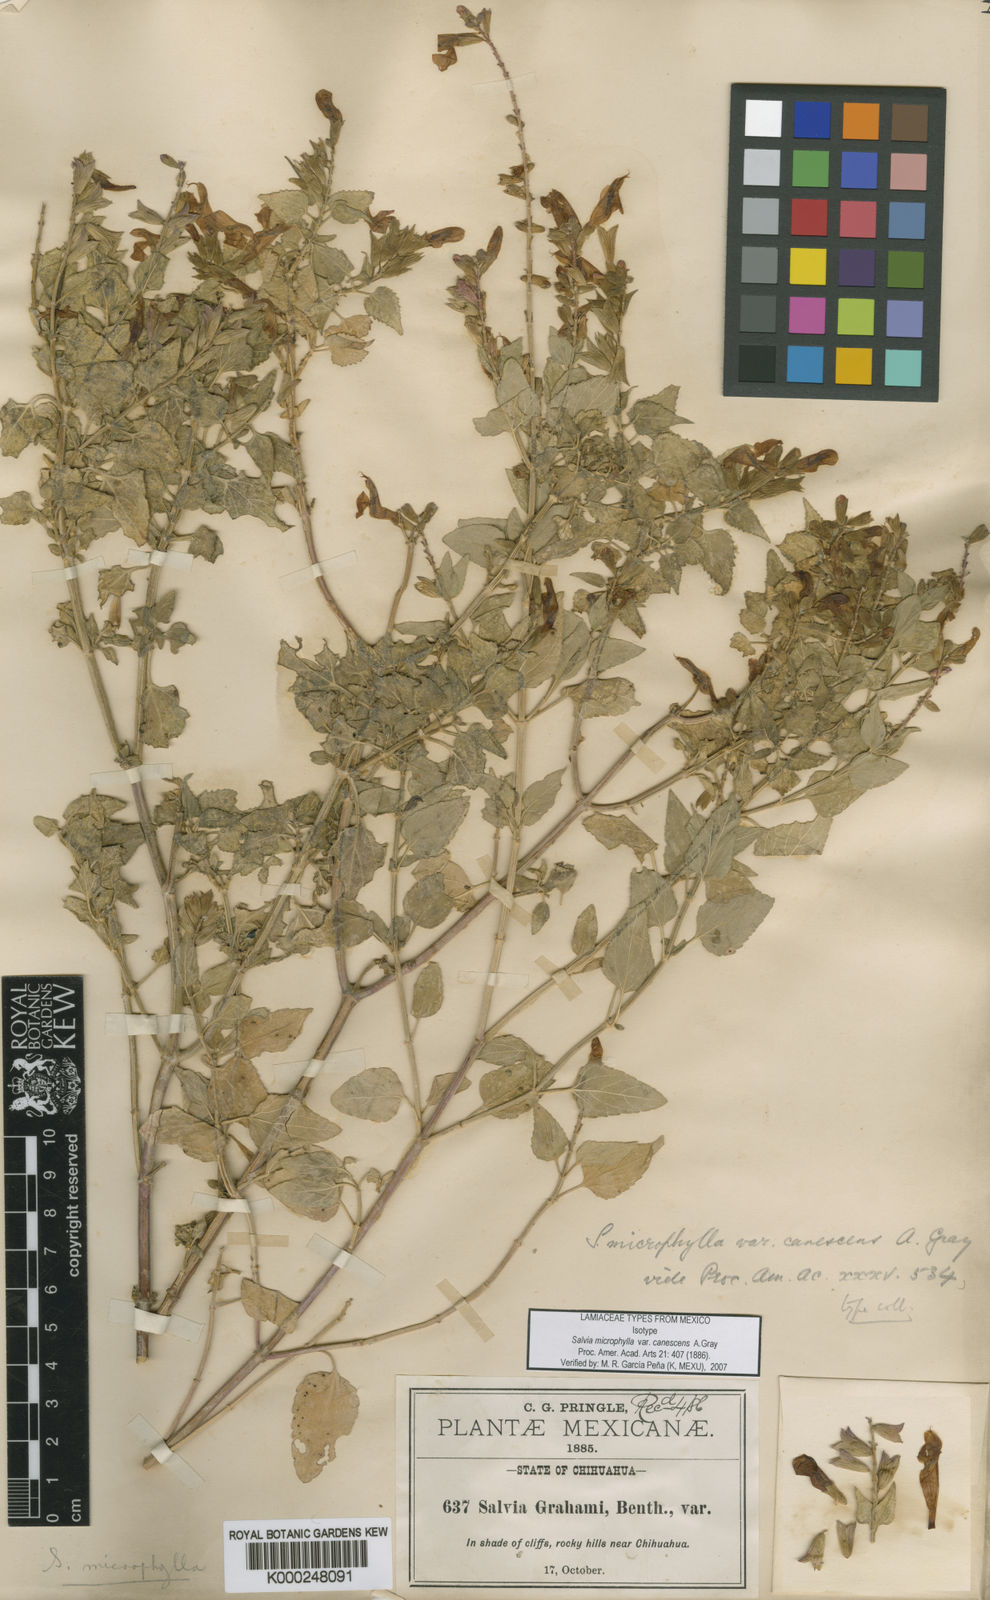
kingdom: Plantae
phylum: Tracheophyta
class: Magnoliopsida
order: Lamiales
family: Lamiaceae
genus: Salvia
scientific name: Salvia
